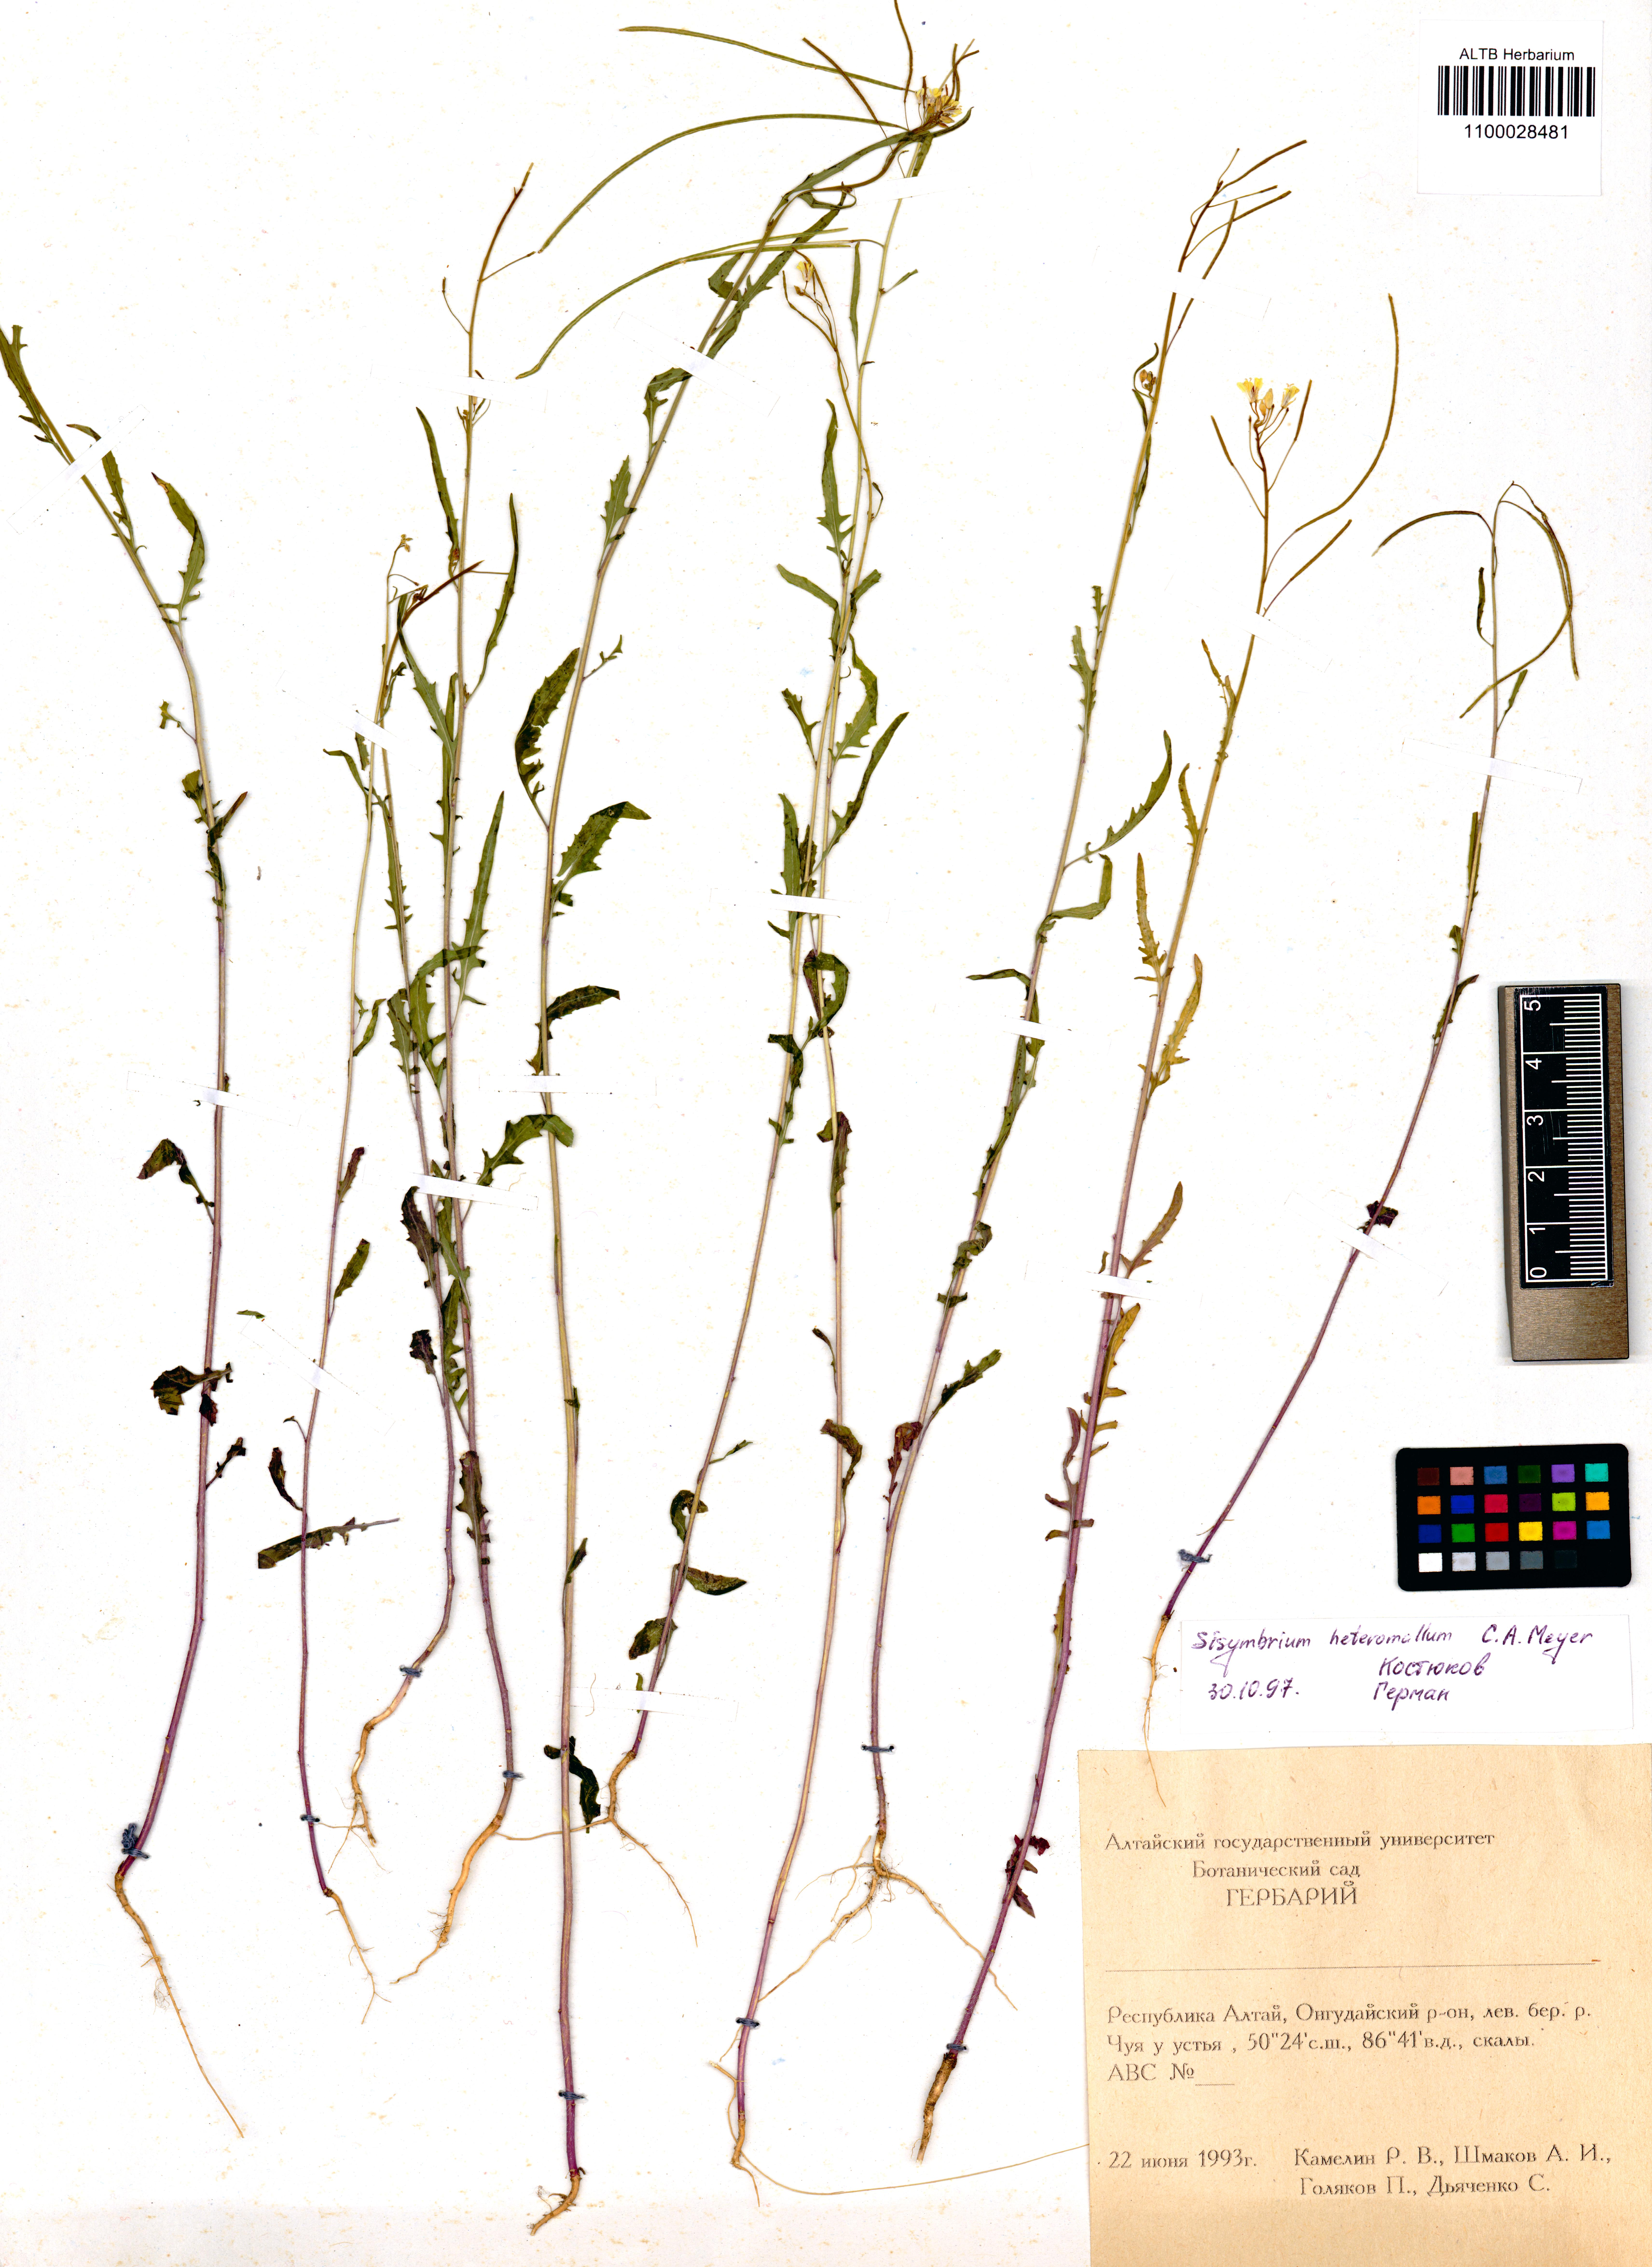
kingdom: Plantae
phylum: Tracheophyta
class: Magnoliopsida
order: Brassicales
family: Brassicaceae
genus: Sisymbrium
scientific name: Sisymbrium heteromallum
